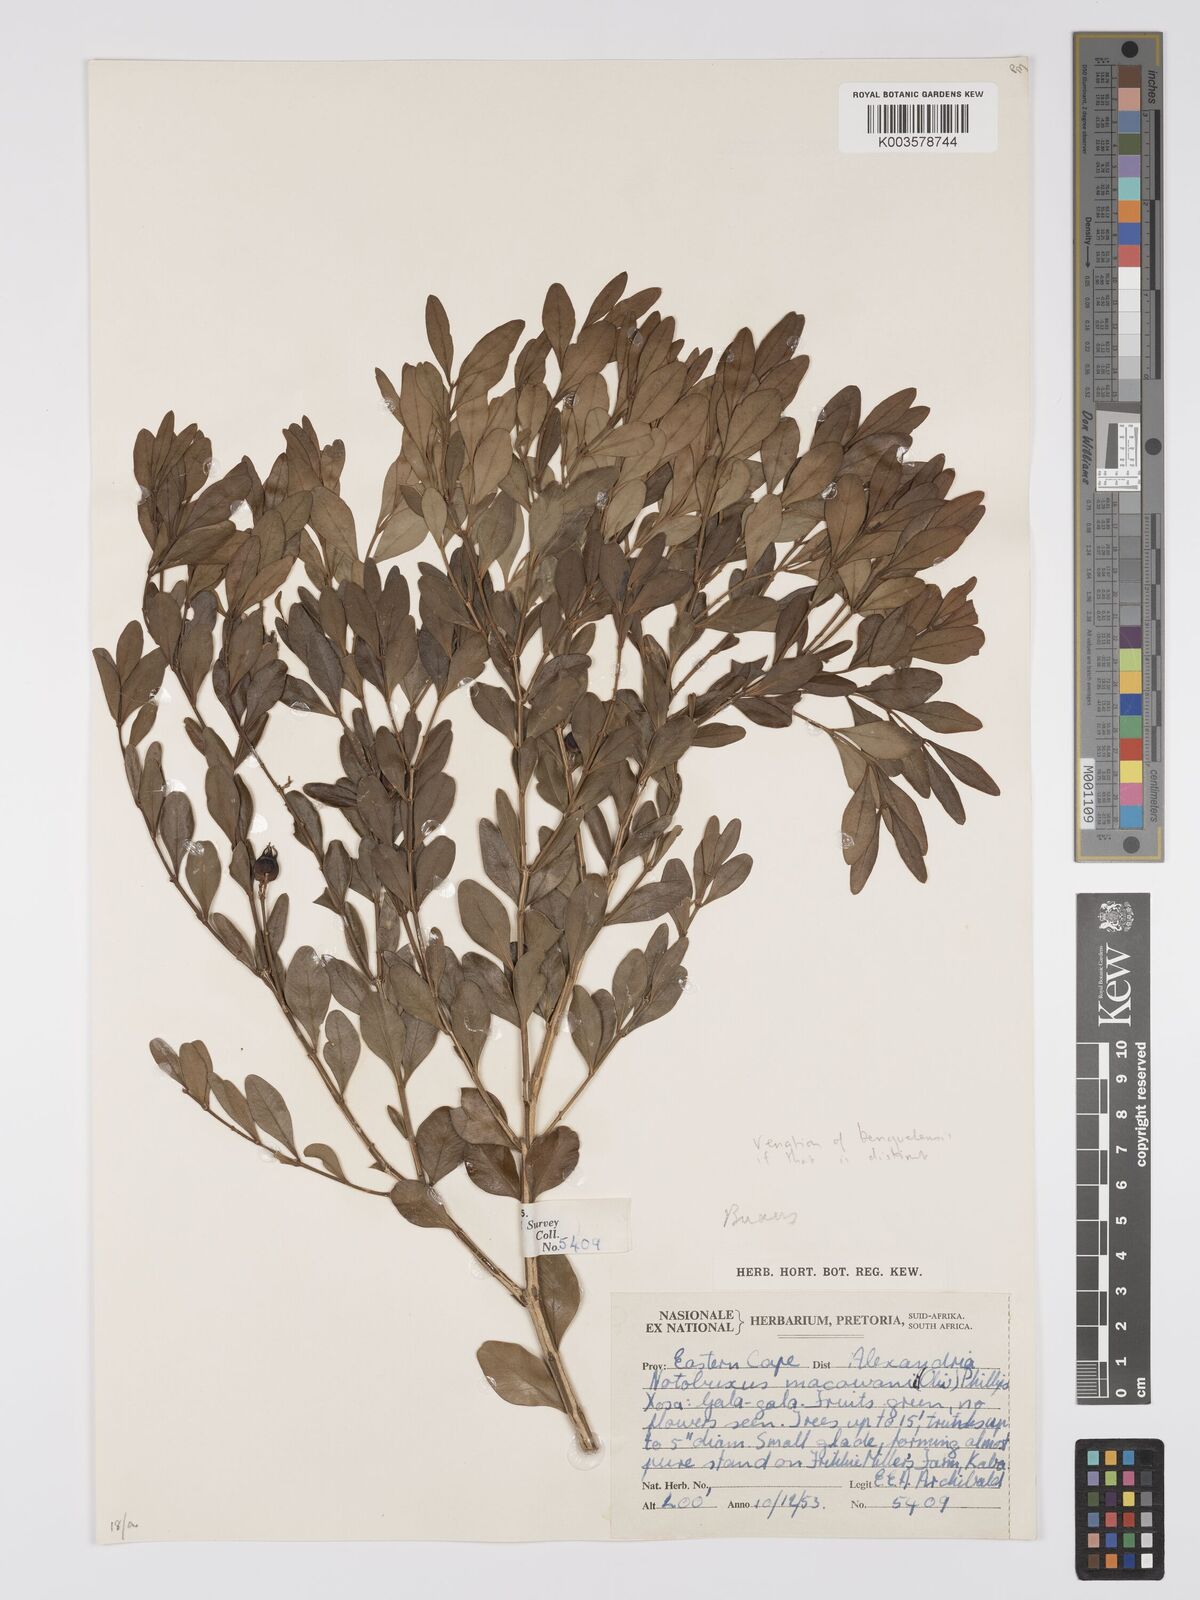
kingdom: Plantae
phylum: Tracheophyta
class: Magnoliopsida
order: Buxales
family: Buxaceae
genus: Buxus
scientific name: Buxus macowanii
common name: Cape box
